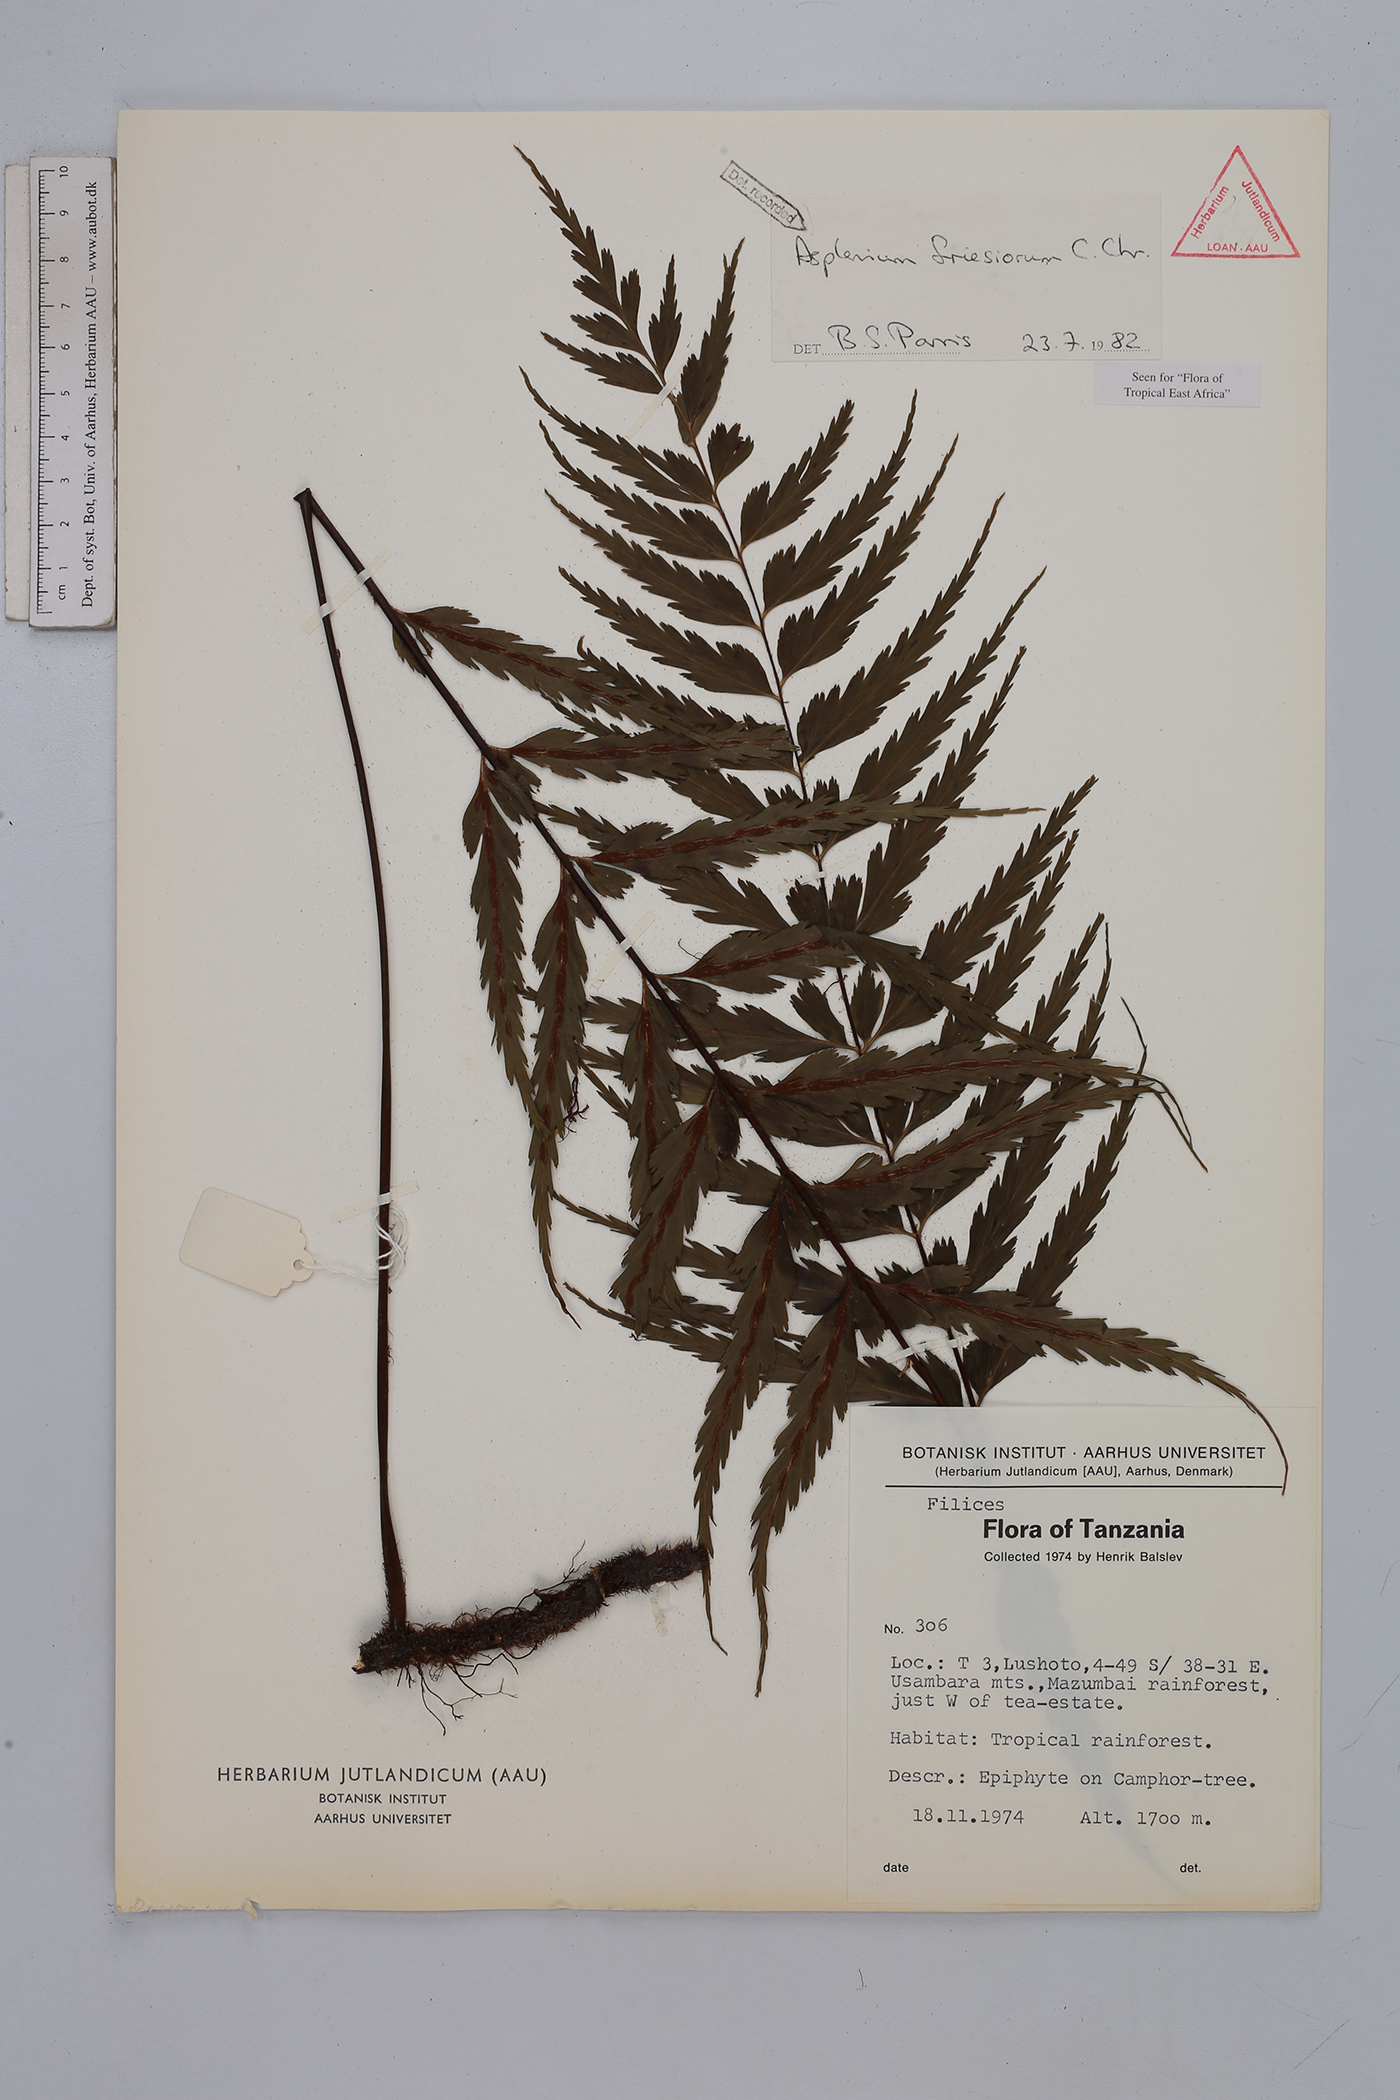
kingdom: Plantae
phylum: Tracheophyta
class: Polypodiopsida
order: Polypodiales
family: Aspleniaceae
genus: Asplenium
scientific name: Asplenium gueinzianum
